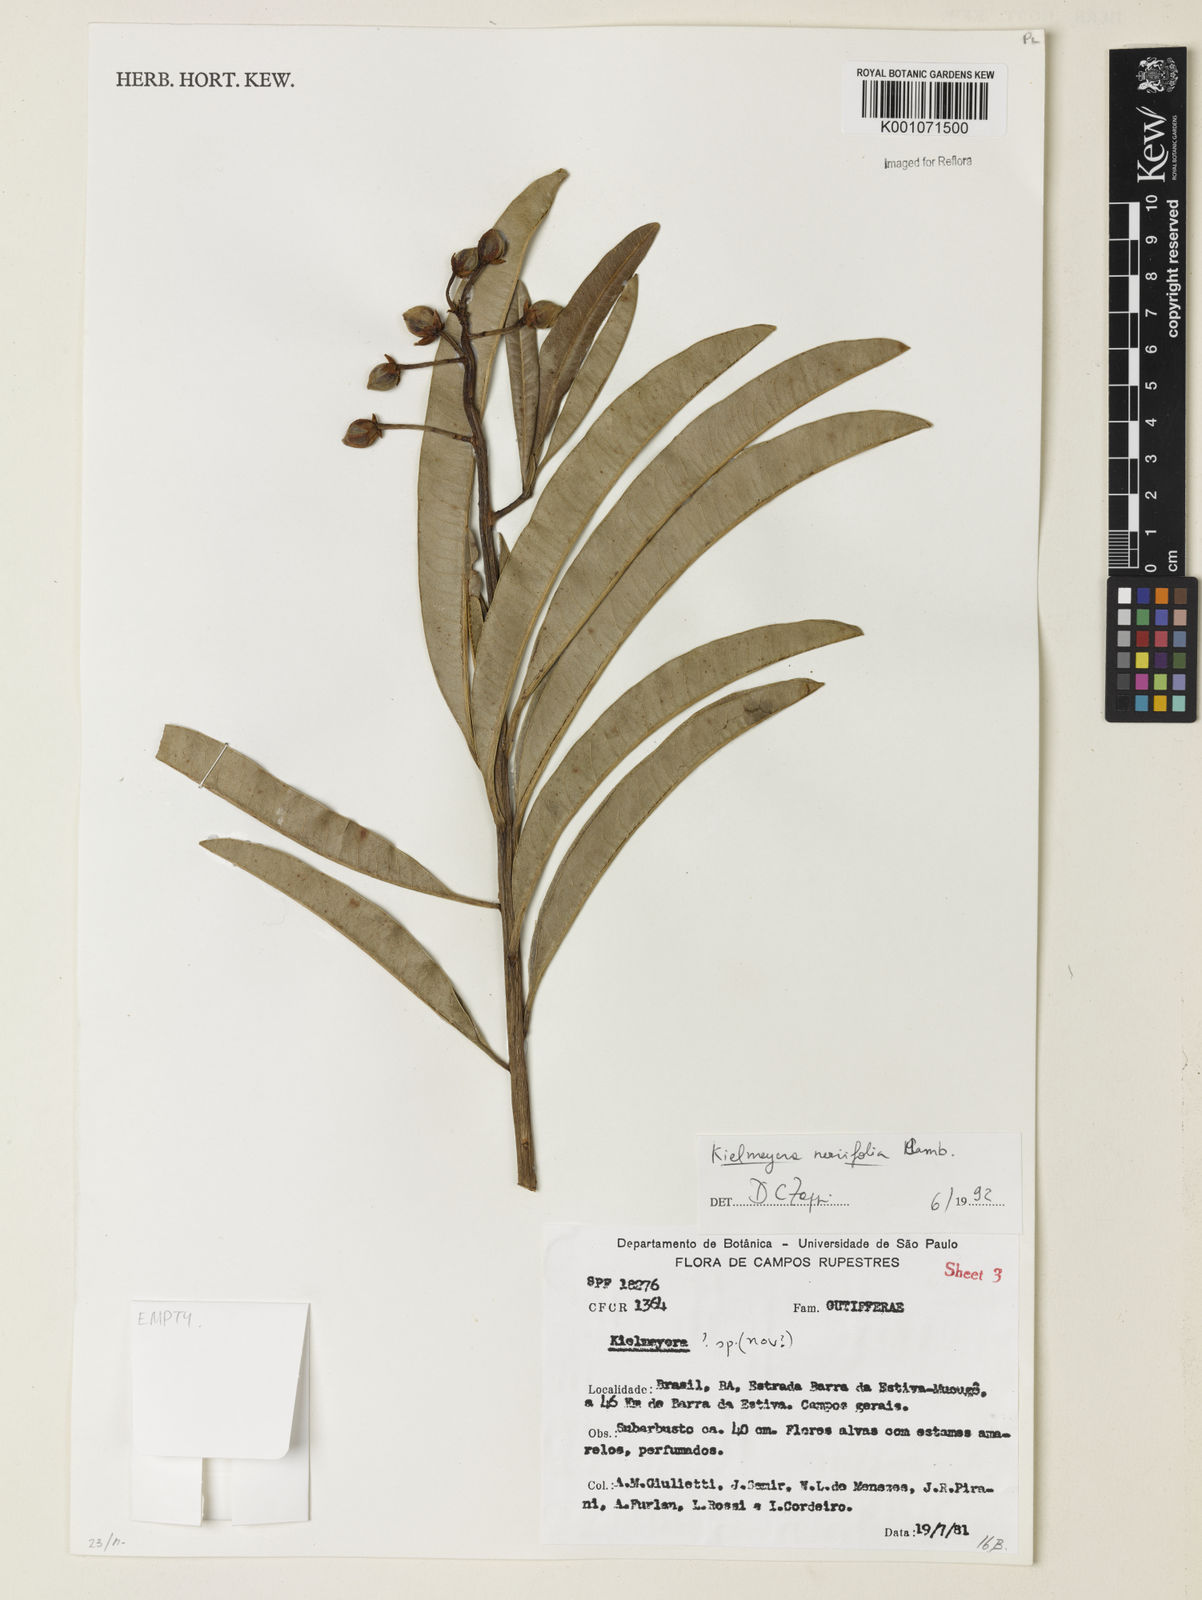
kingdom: Plantae
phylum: Tracheophyta
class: Magnoliopsida
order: Malpighiales
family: Calophyllaceae
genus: Kielmeyera
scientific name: Kielmeyera abdita
